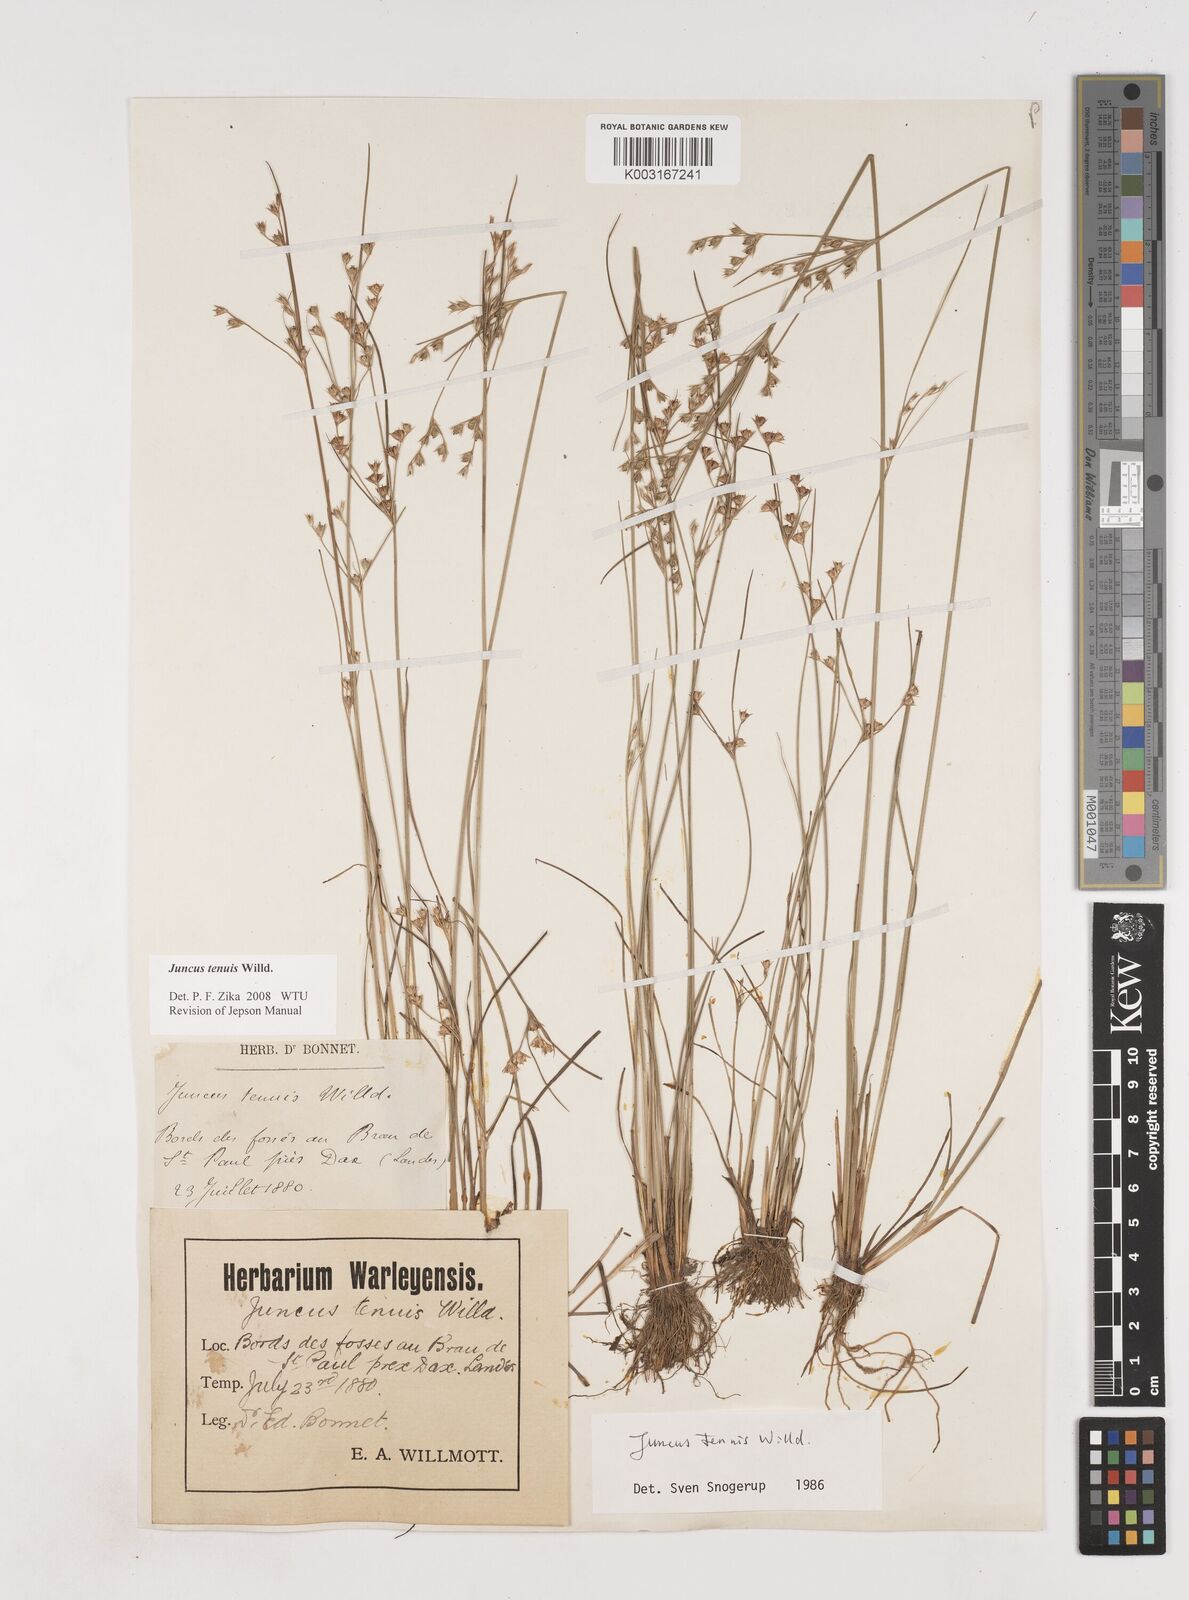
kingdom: Plantae
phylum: Tracheophyta
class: Liliopsida
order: Poales
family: Juncaceae
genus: Juncus
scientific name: Juncus tenuis
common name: Slender rush
